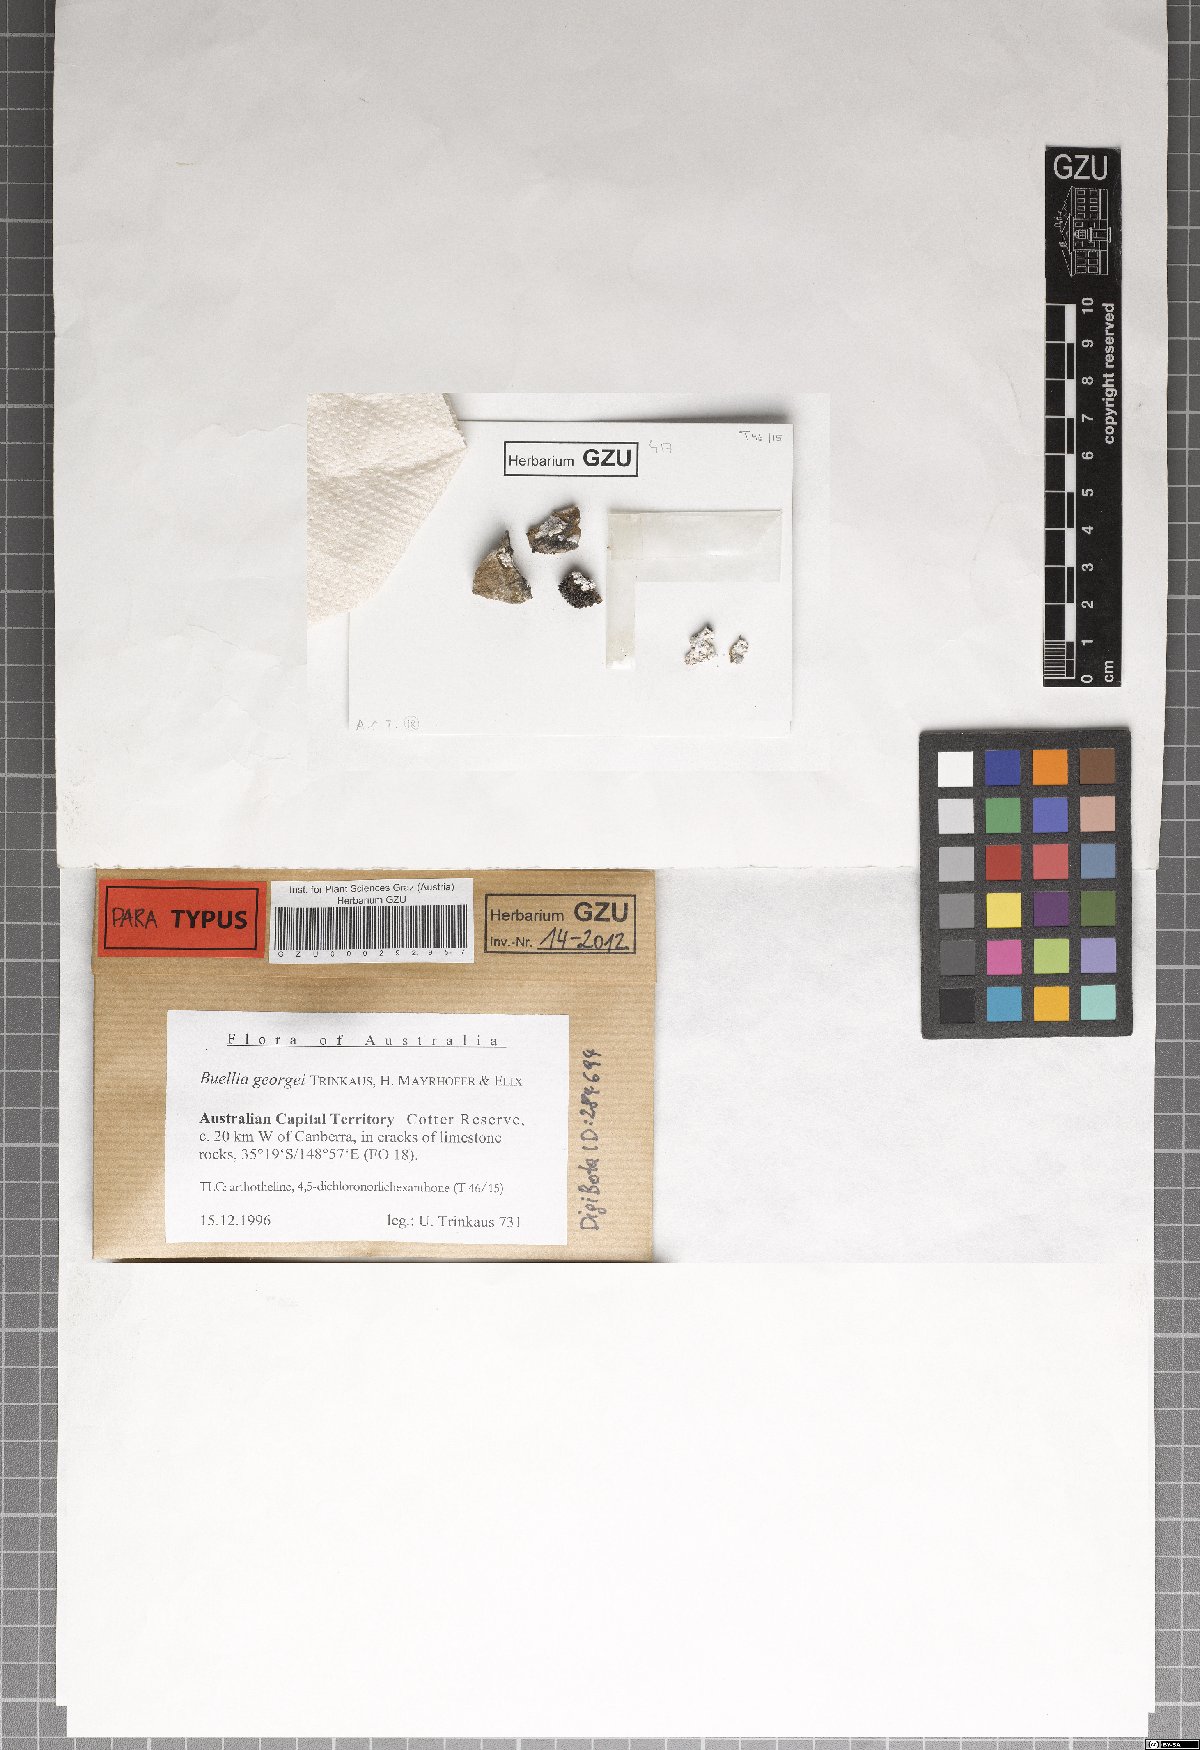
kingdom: Fungi
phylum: Ascomycota
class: Lecanoromycetes
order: Caliciales
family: Caliciaceae
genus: Buellia
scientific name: Buellia georgei
